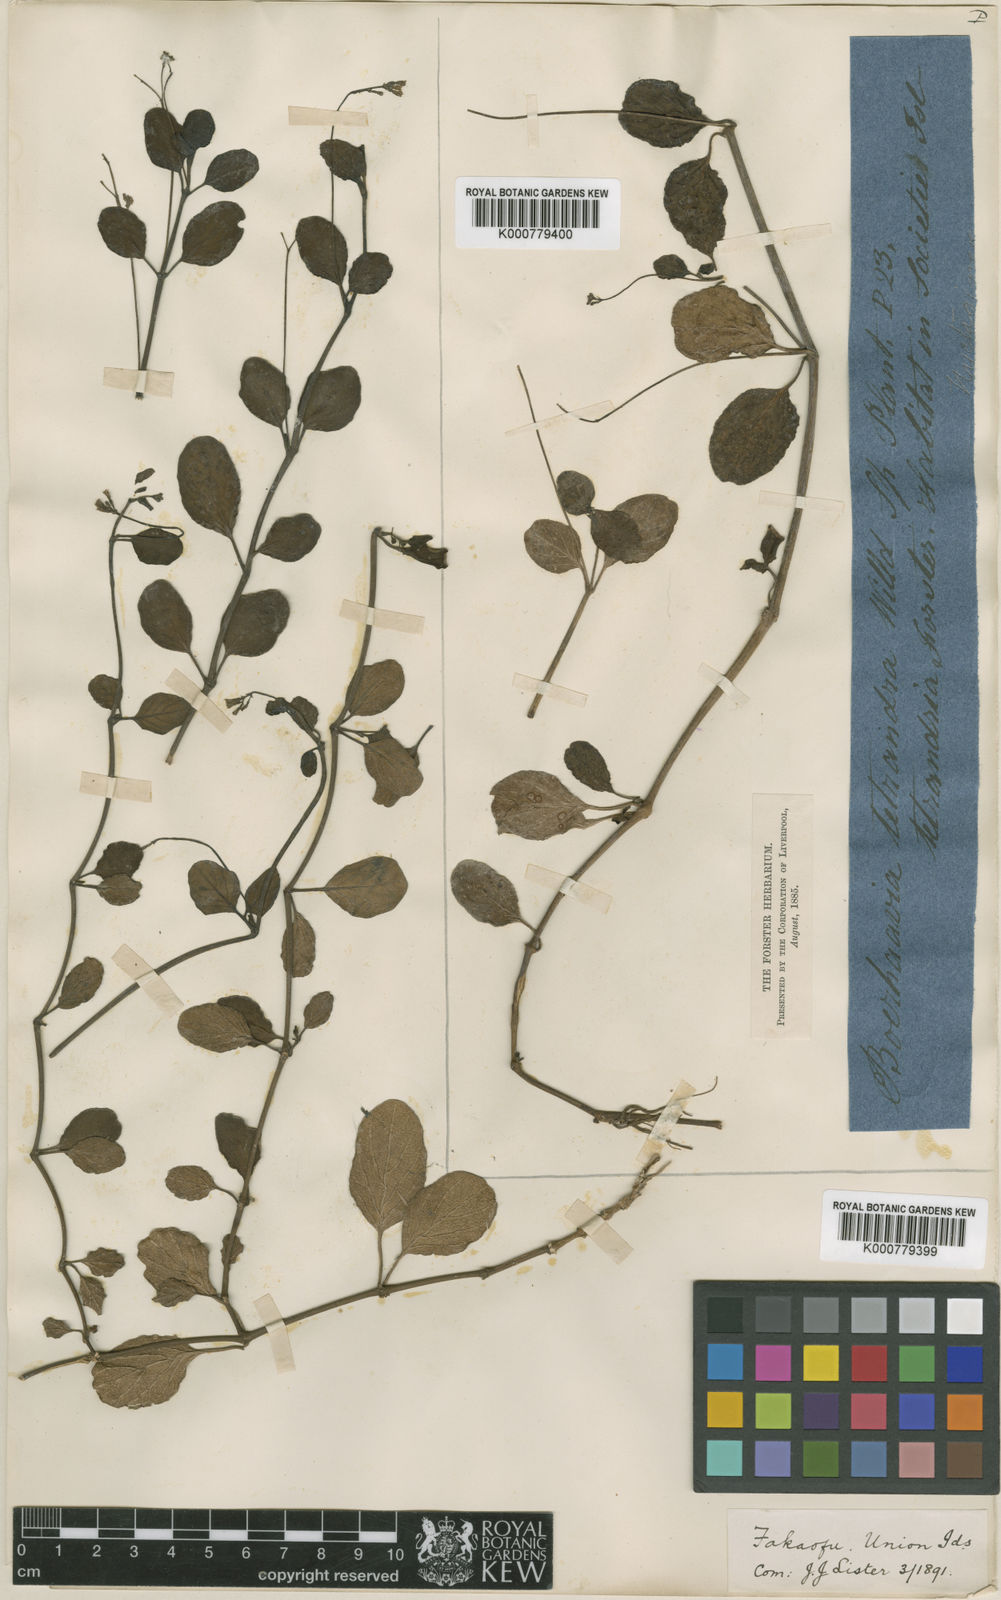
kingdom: Plantae
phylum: Tracheophyta
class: Magnoliopsida
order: Caryophyllales
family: Nyctaginaceae
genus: Boerhavia
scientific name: Boerhavia tetrandra
